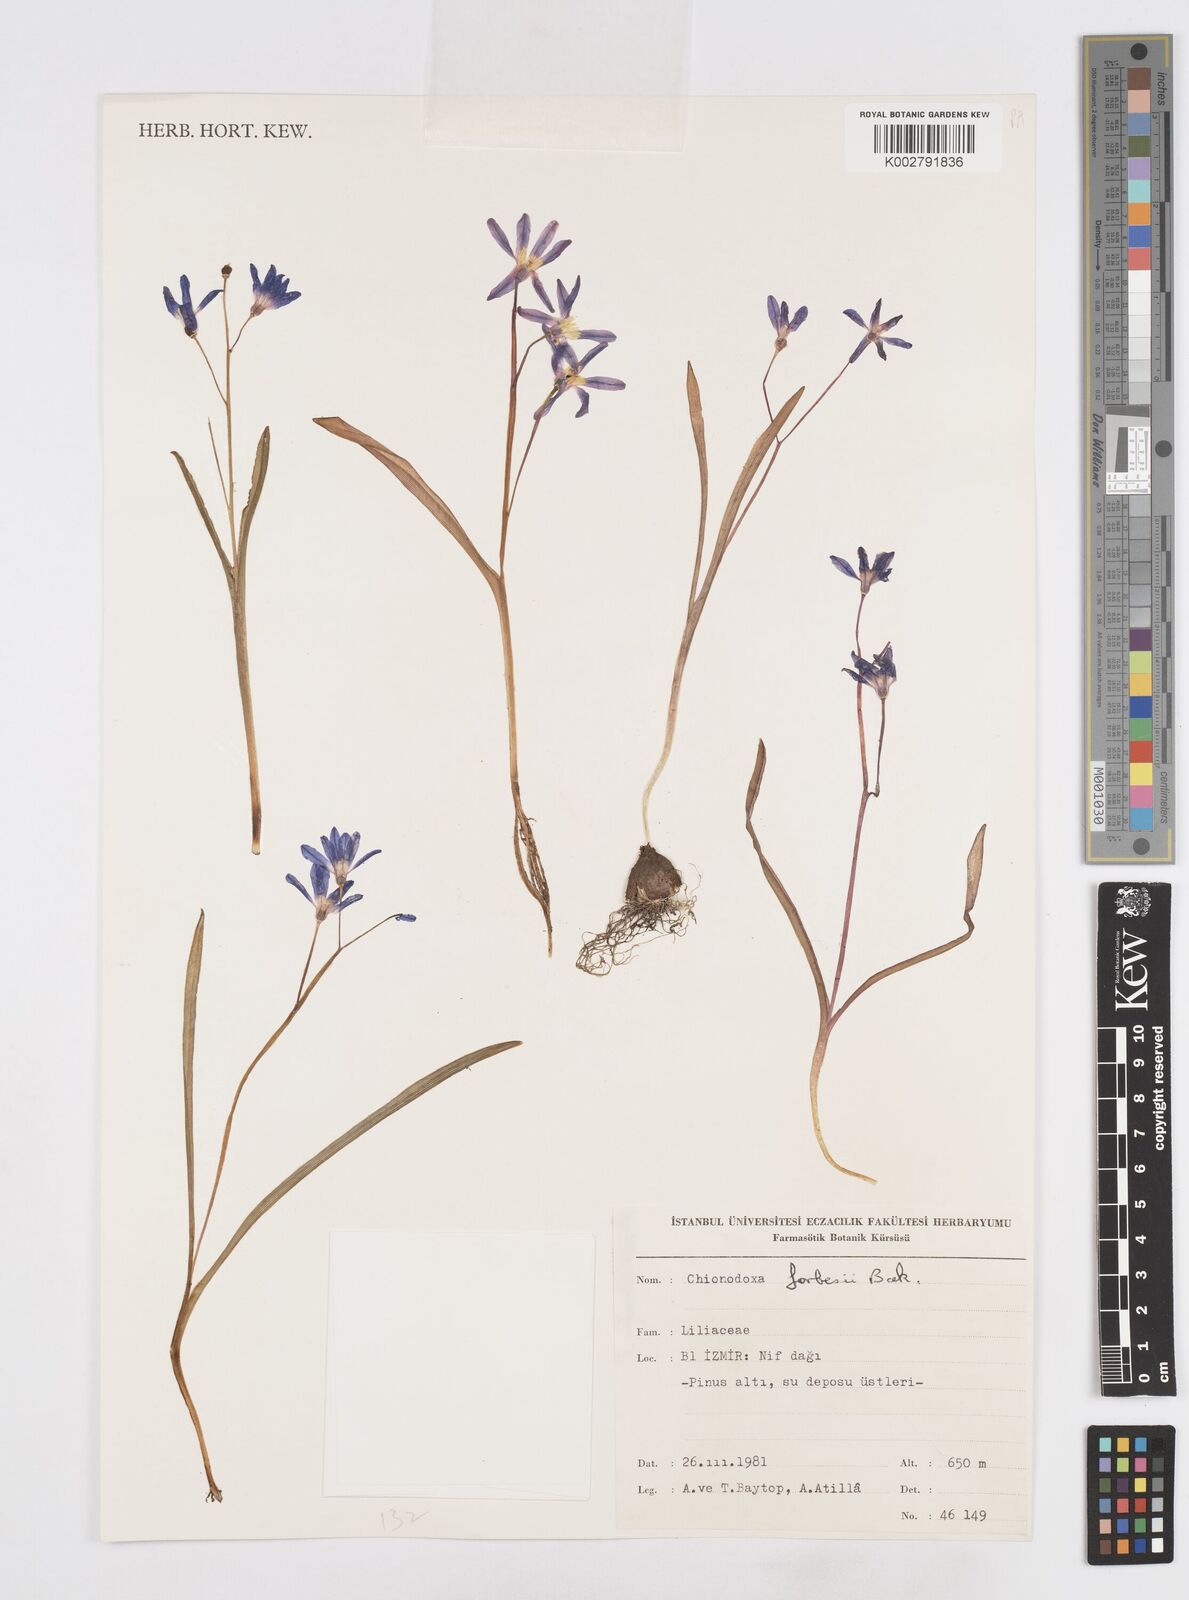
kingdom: Plantae
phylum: Tracheophyta
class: Liliopsida
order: Asparagales
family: Asparagaceae
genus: Scilla
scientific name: Scilla forbesii
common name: Glory-of-the-snow
